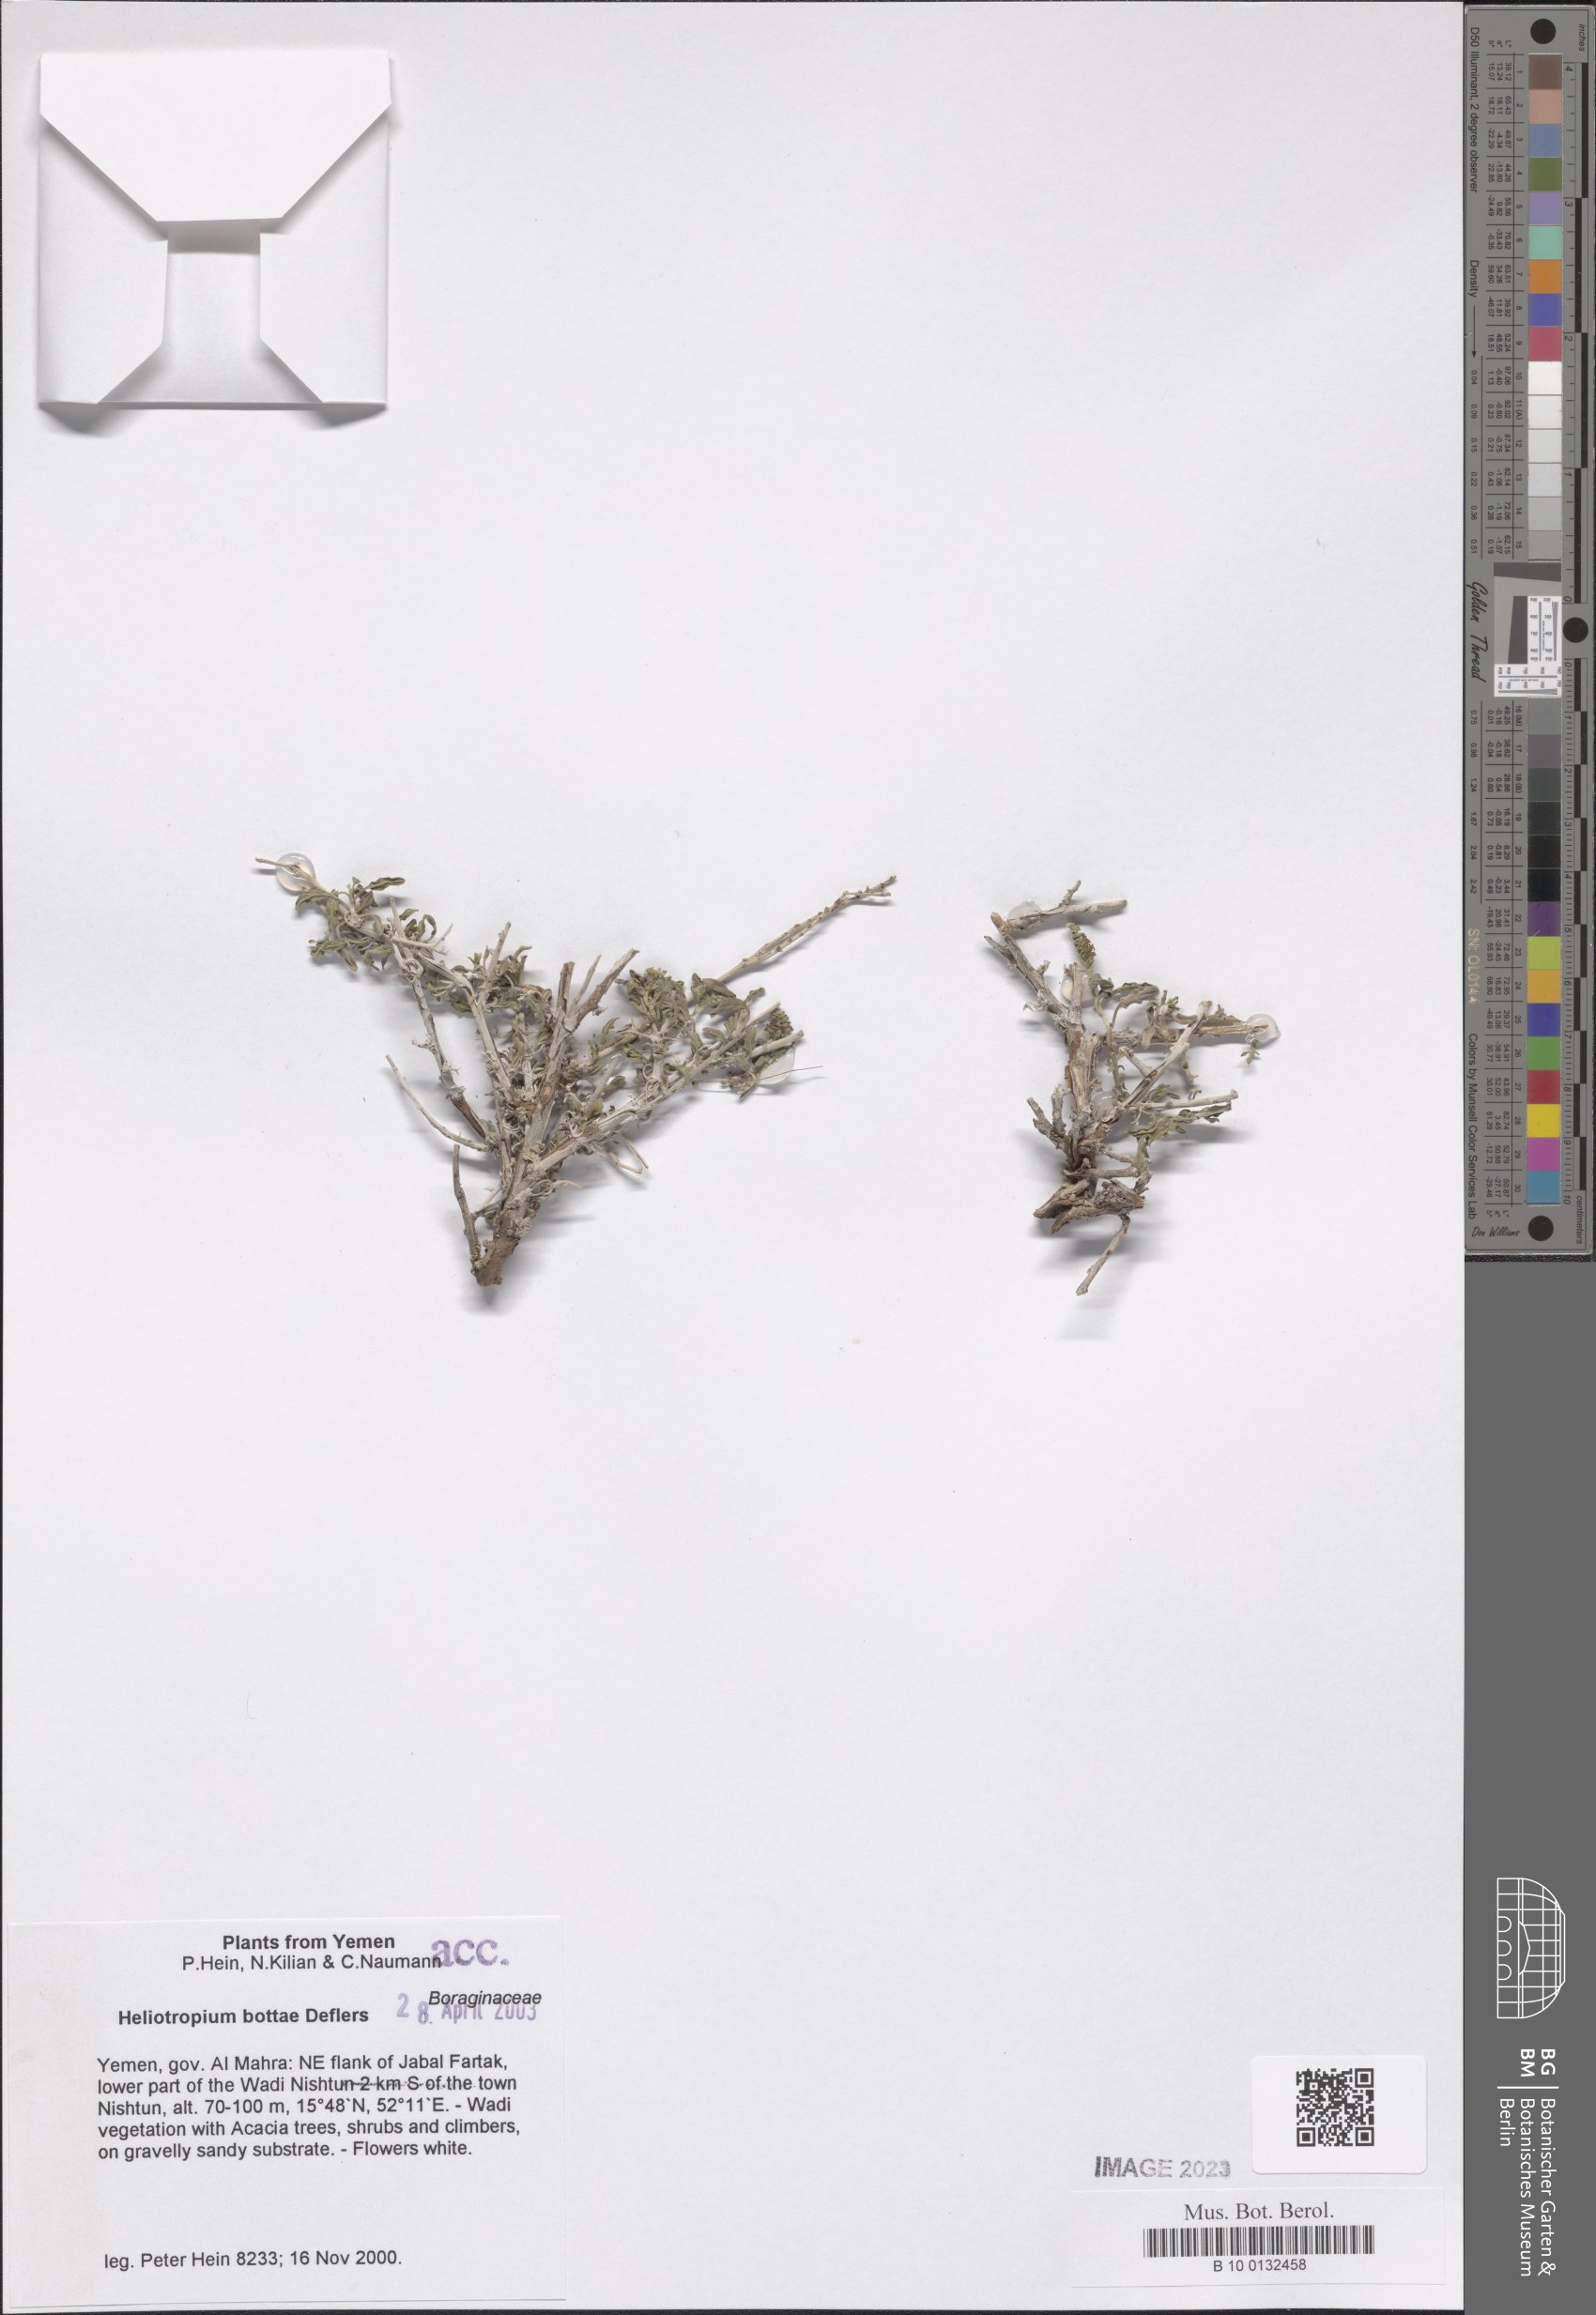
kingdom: Plantae
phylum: Tracheophyta
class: Magnoliopsida
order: Boraginales
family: Heliotropiaceae
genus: Heliotropium
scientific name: Heliotropium steudneri
